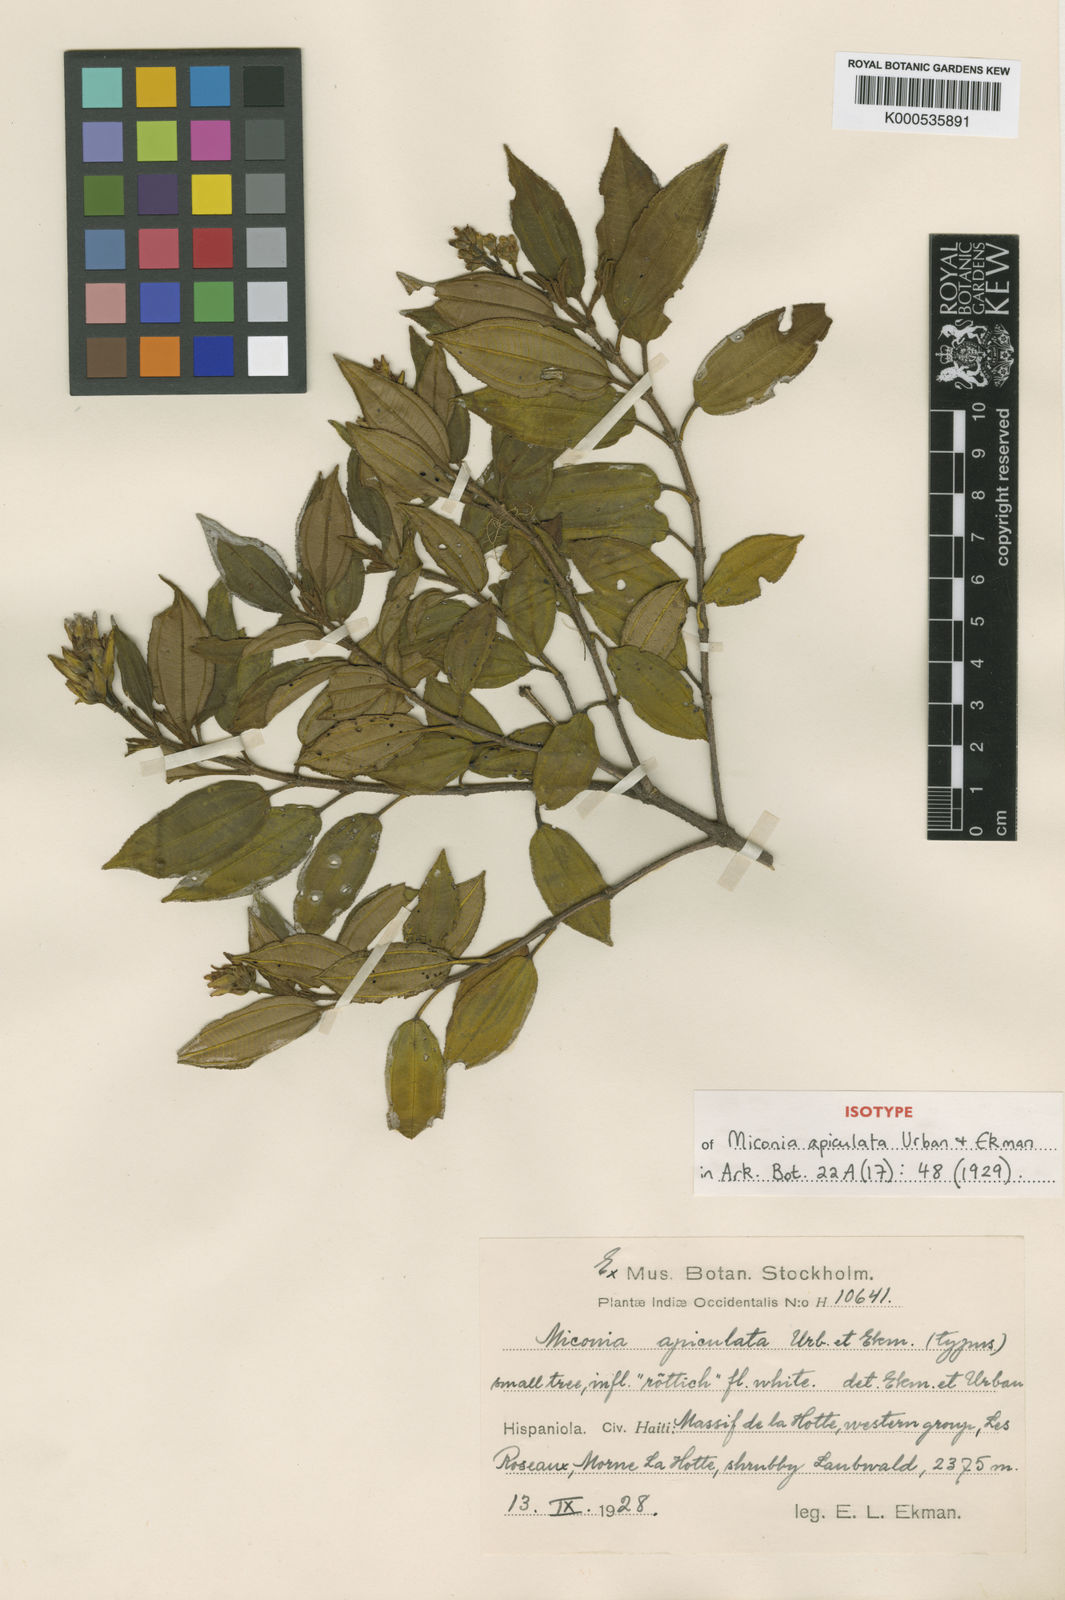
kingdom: Plantae
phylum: Tracheophyta
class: Magnoliopsida
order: Myrtales
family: Melastomataceae
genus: Miconia
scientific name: Miconia apiculata
